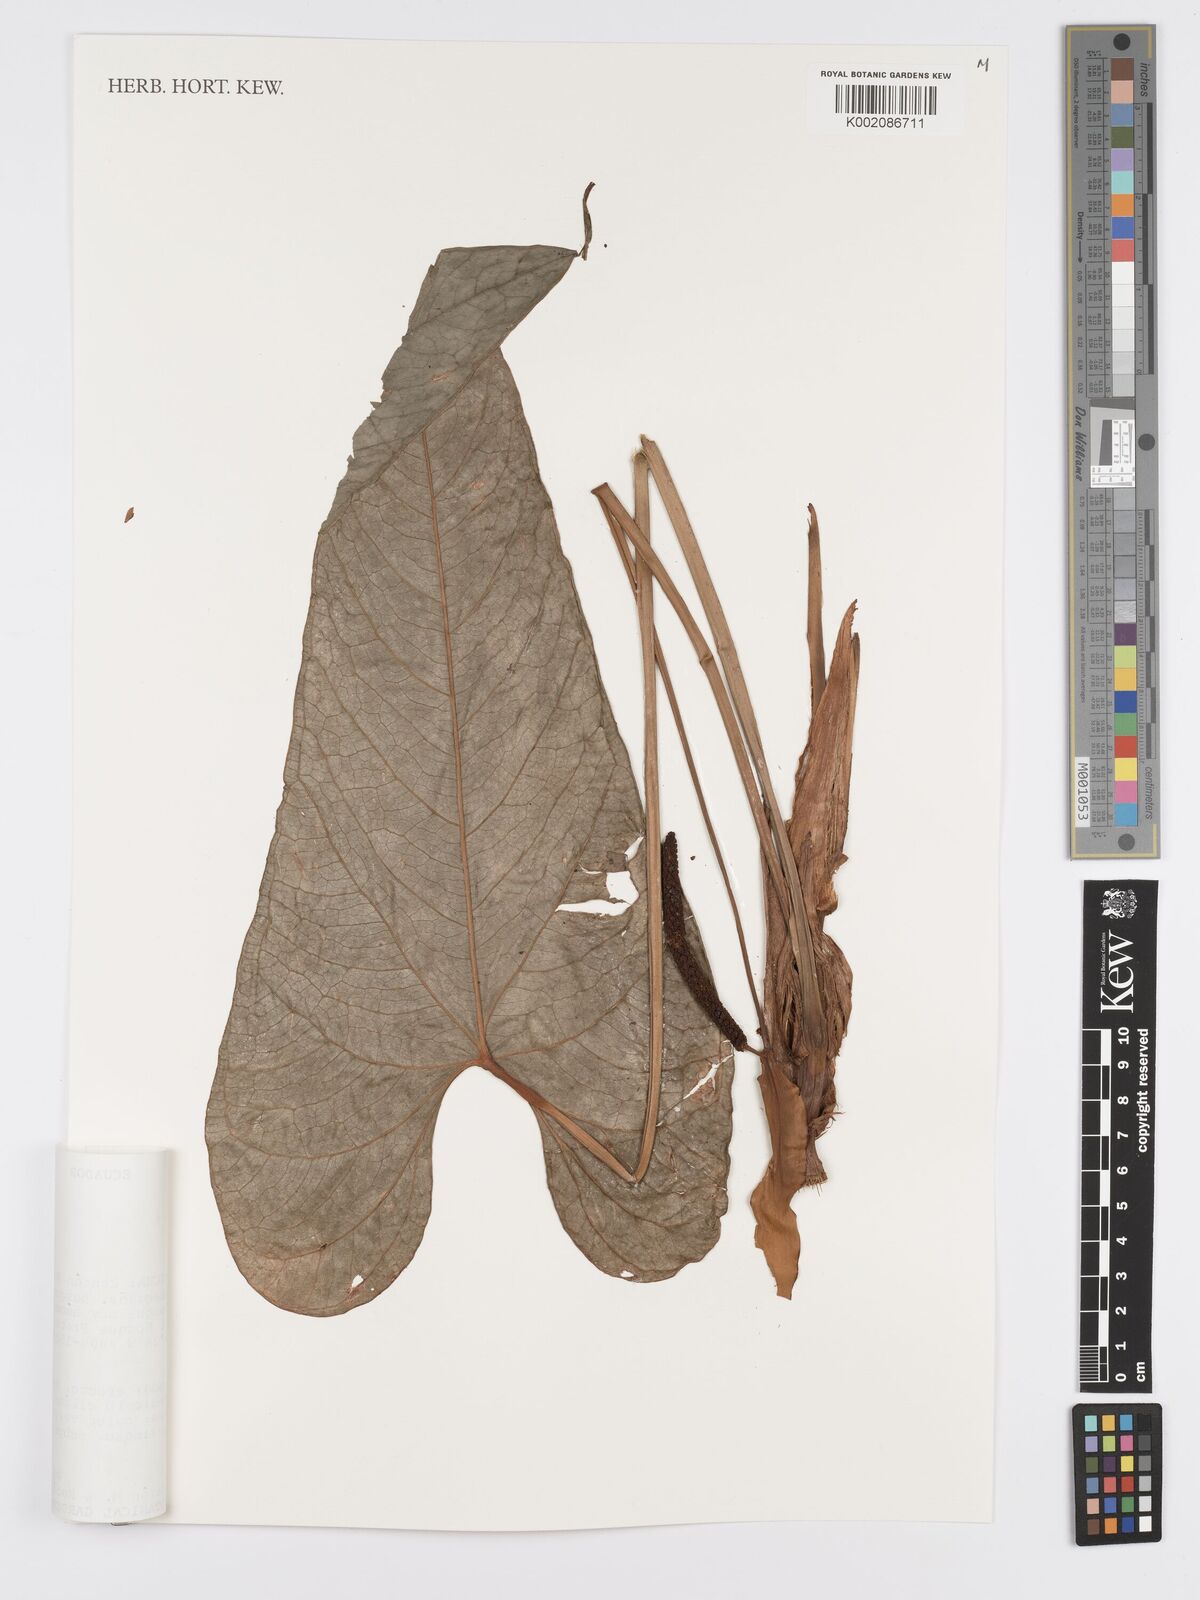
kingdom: Plantae
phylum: Tracheophyta
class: Liliopsida
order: Alismatales
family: Araceae
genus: Anthurium
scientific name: Anthurium oxybelium
